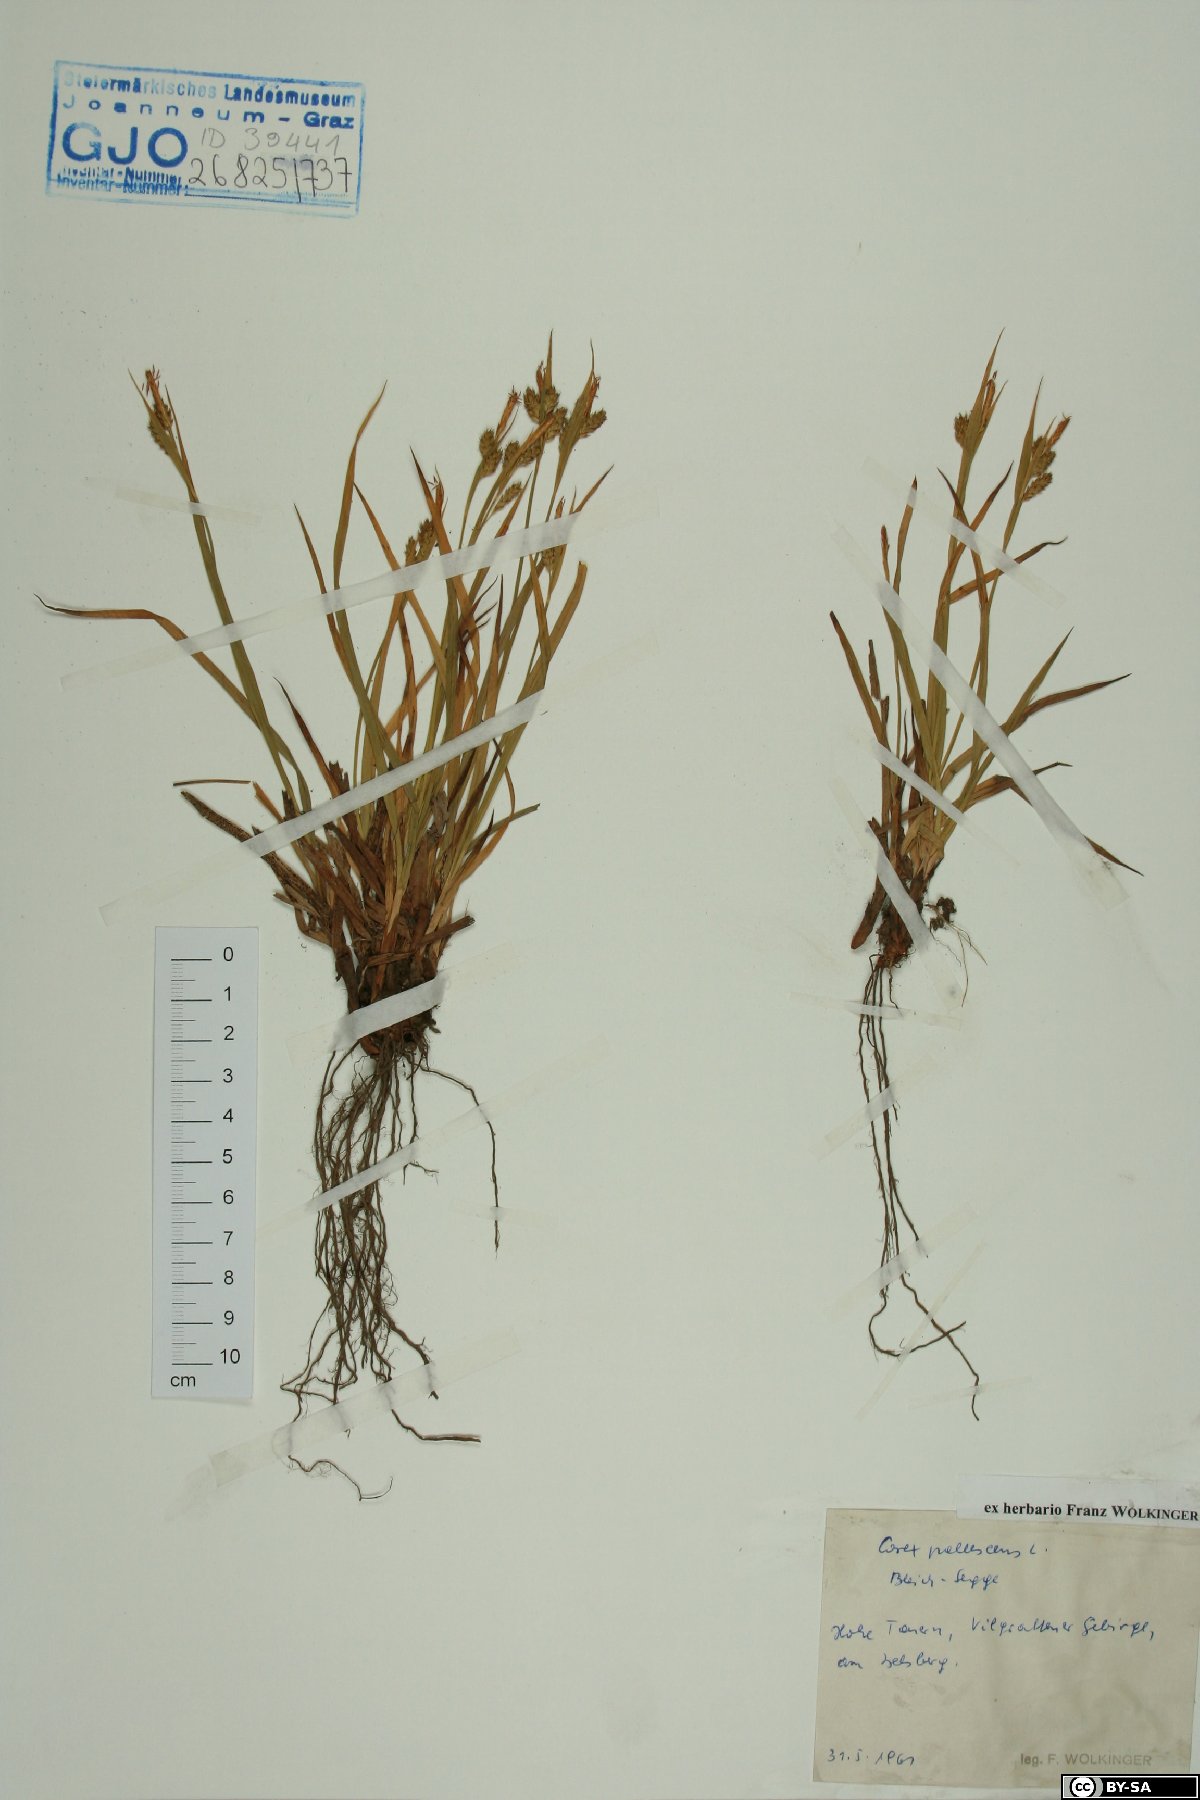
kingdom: Plantae
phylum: Tracheophyta
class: Liliopsida
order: Poales
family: Cyperaceae
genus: Carex
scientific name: Carex pallescens
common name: Pale sedge
